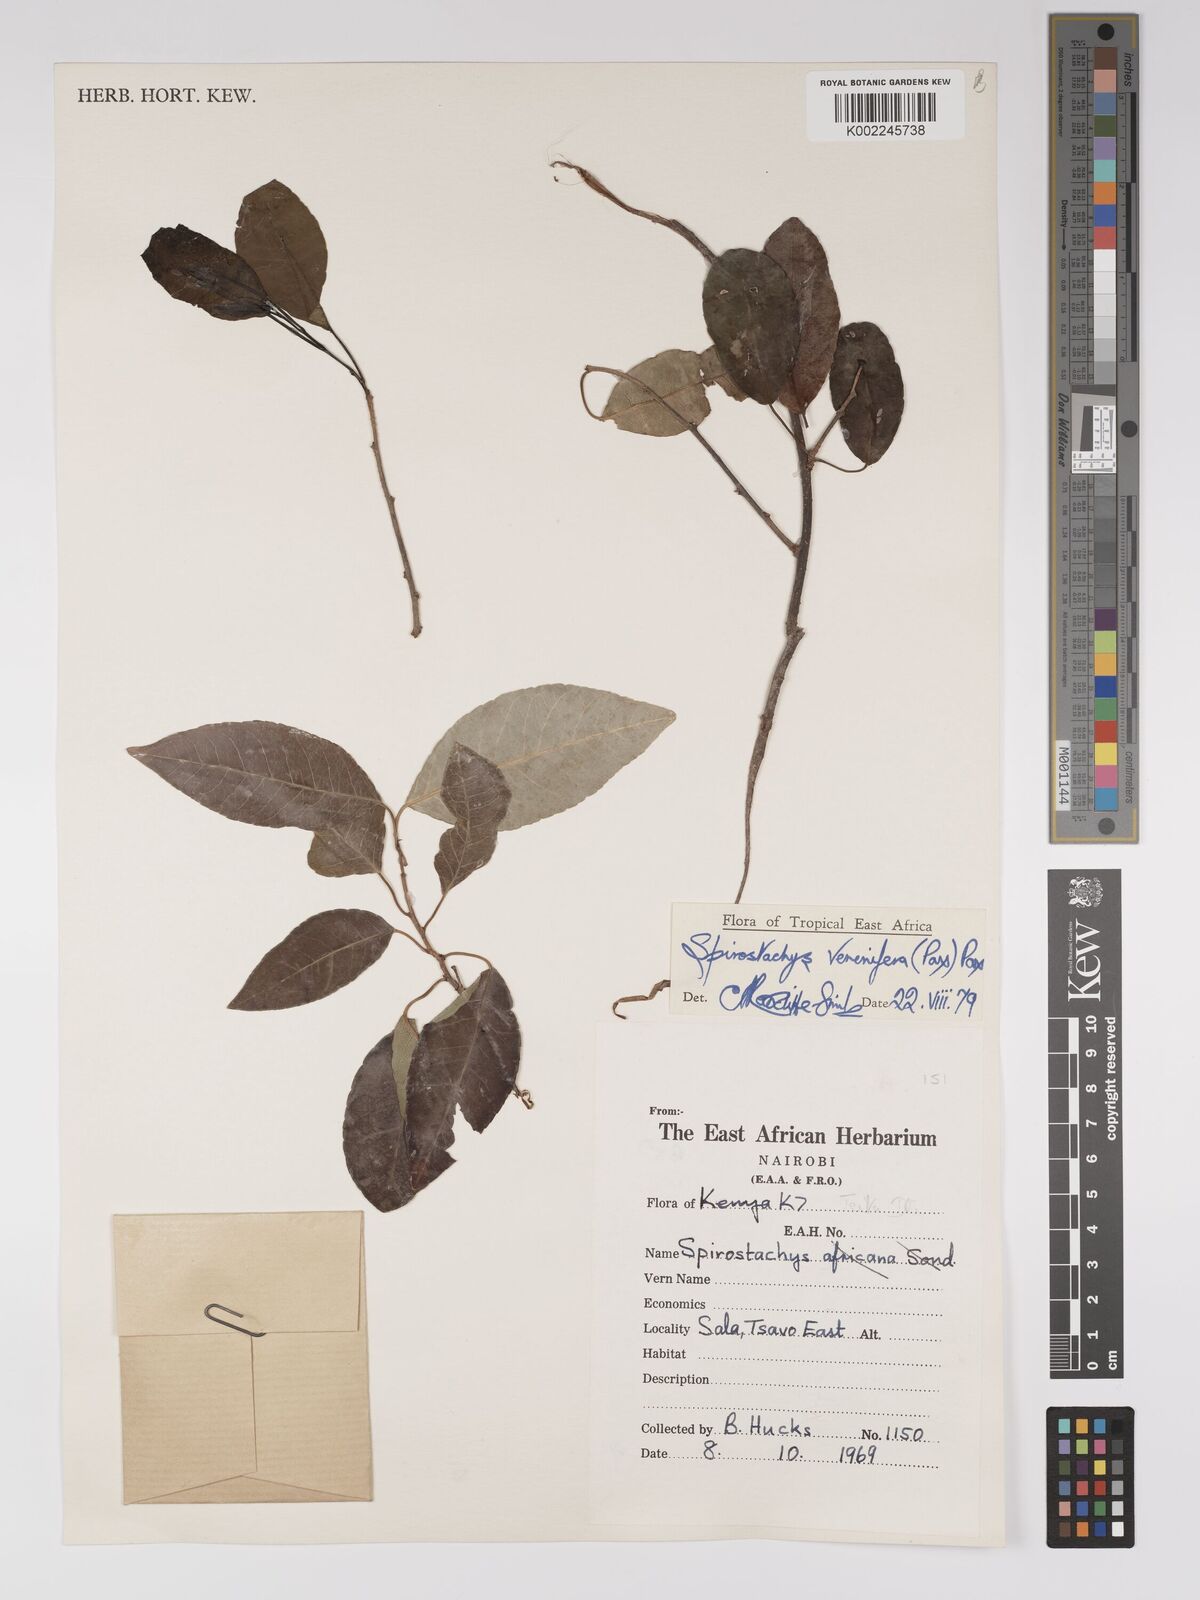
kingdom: Plantae
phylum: Tracheophyta
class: Magnoliopsida
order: Malpighiales
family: Euphorbiaceae
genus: Spirostachys
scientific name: Spirostachys venenifera
